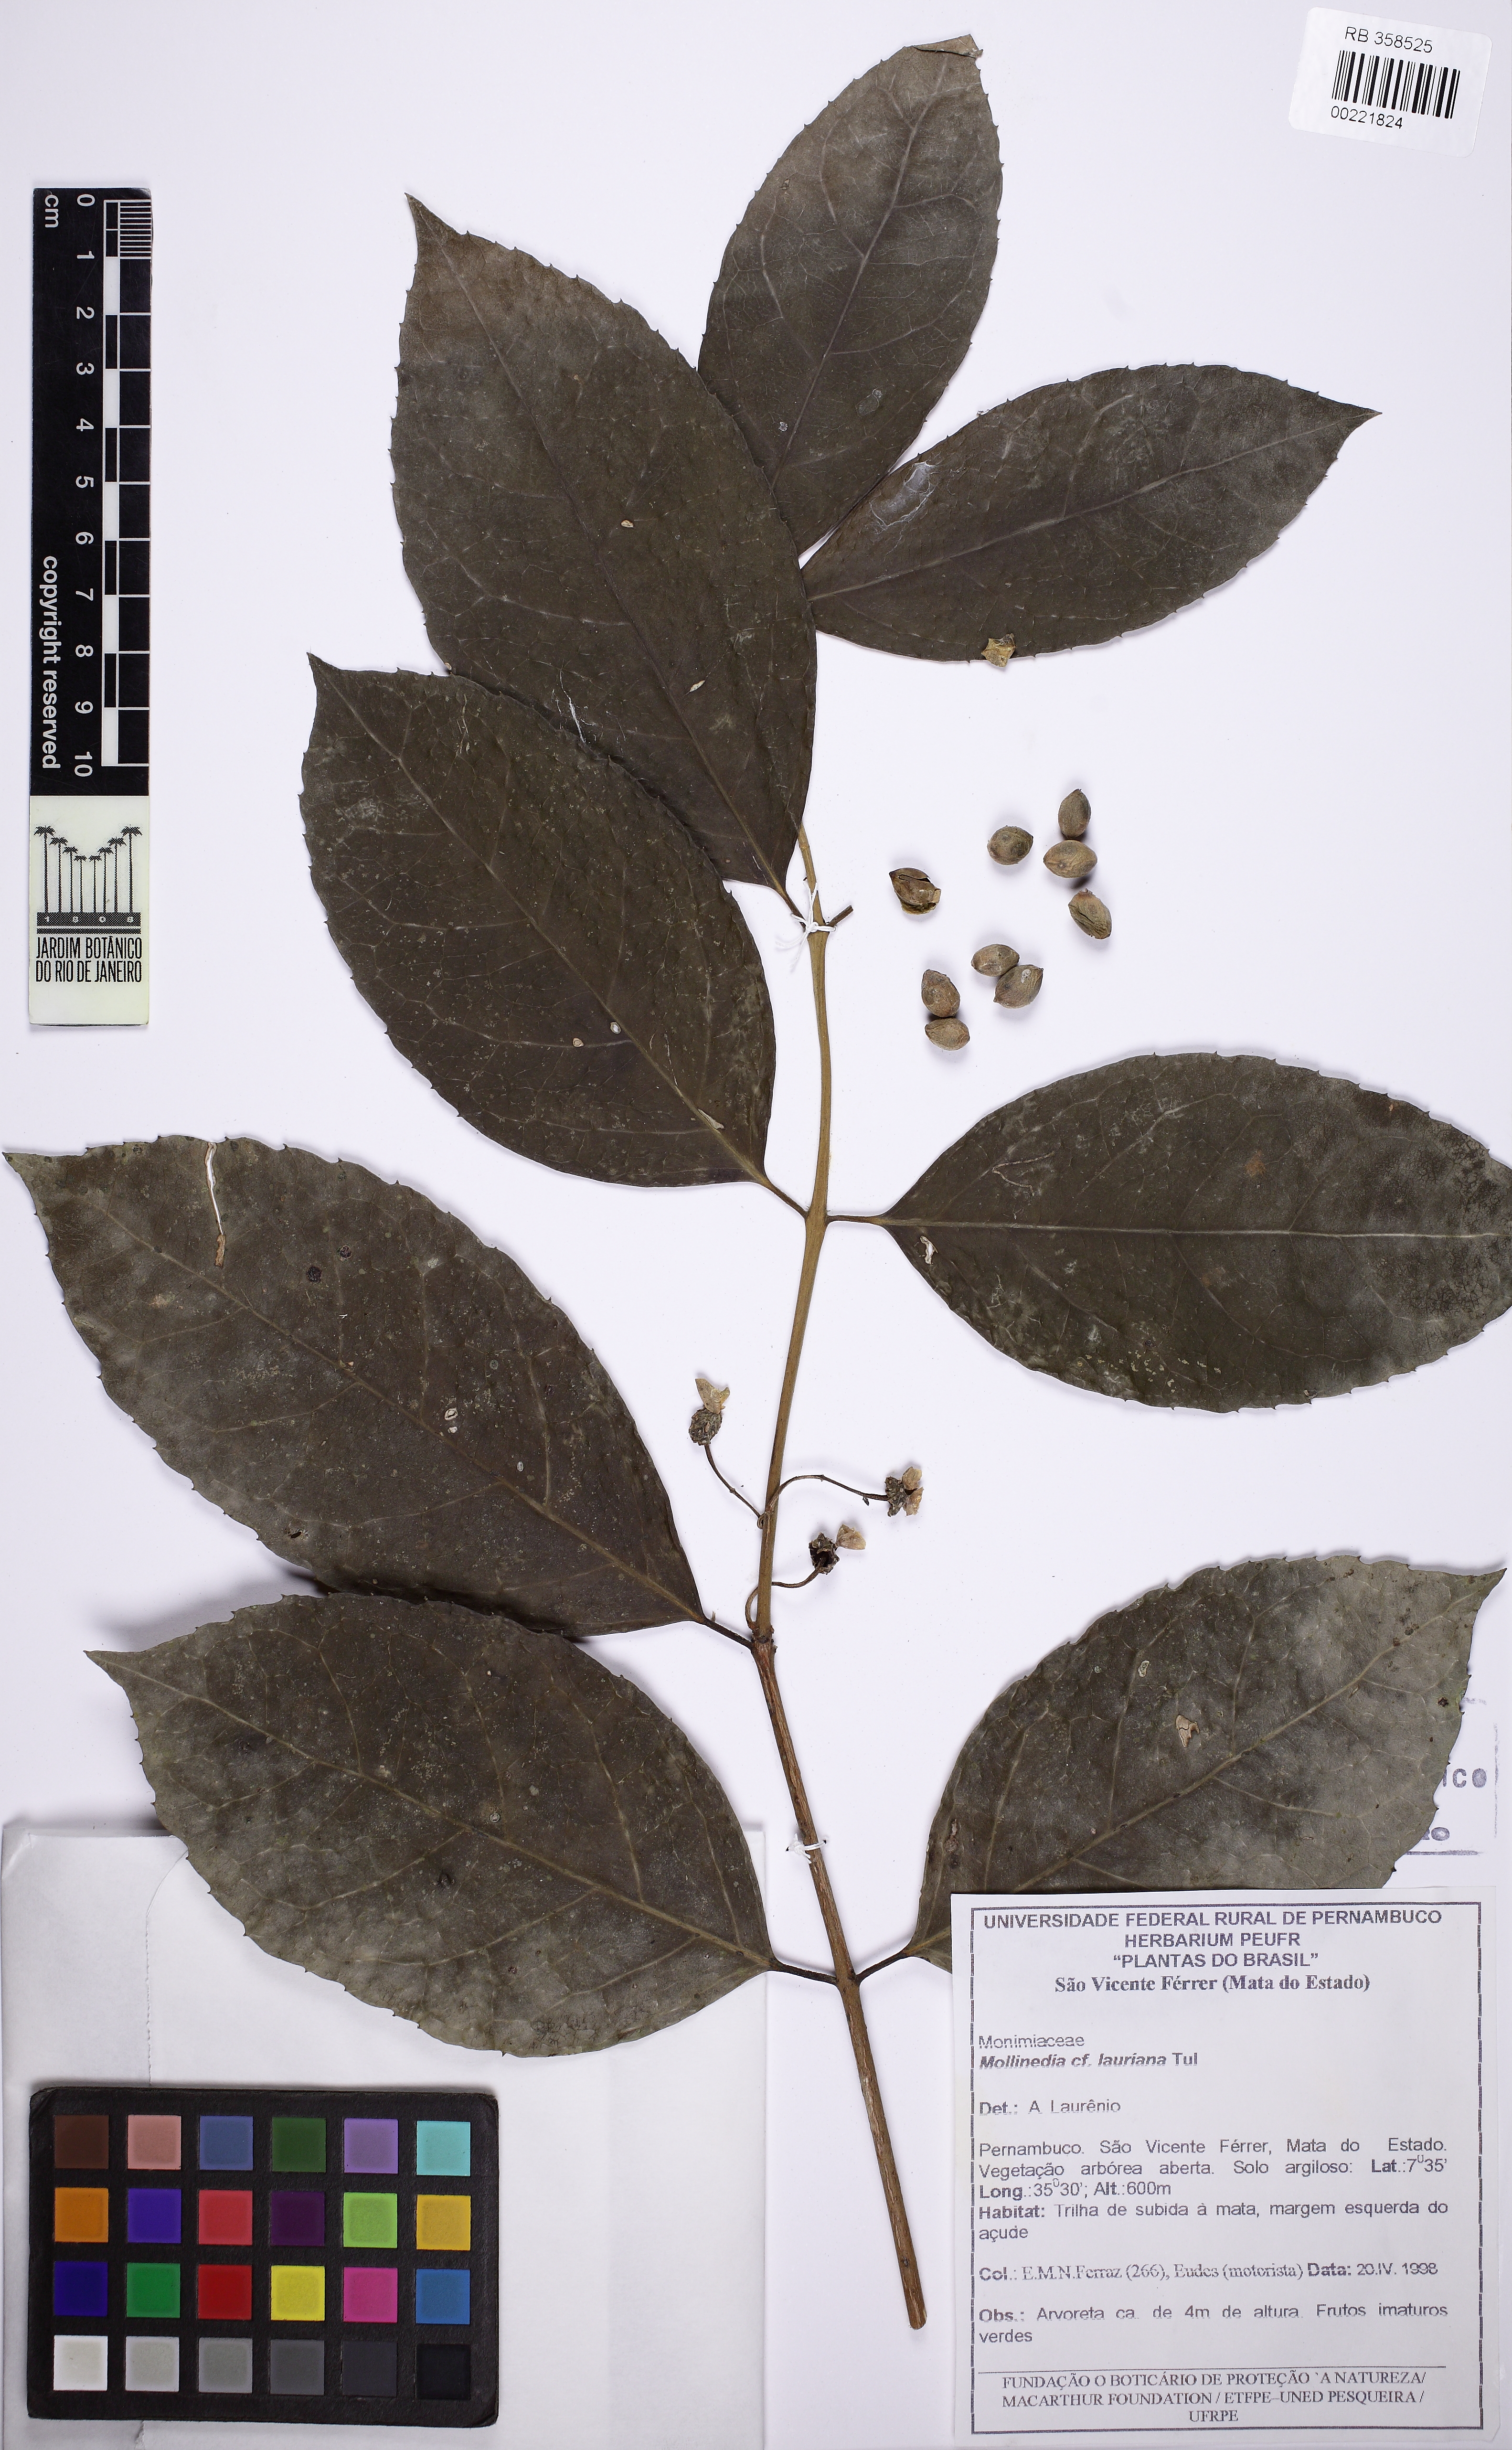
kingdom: Plantae
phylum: Tracheophyta
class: Magnoliopsida
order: Laurales
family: Monimiaceae
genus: Mollinedia
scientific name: Mollinedia ovata
